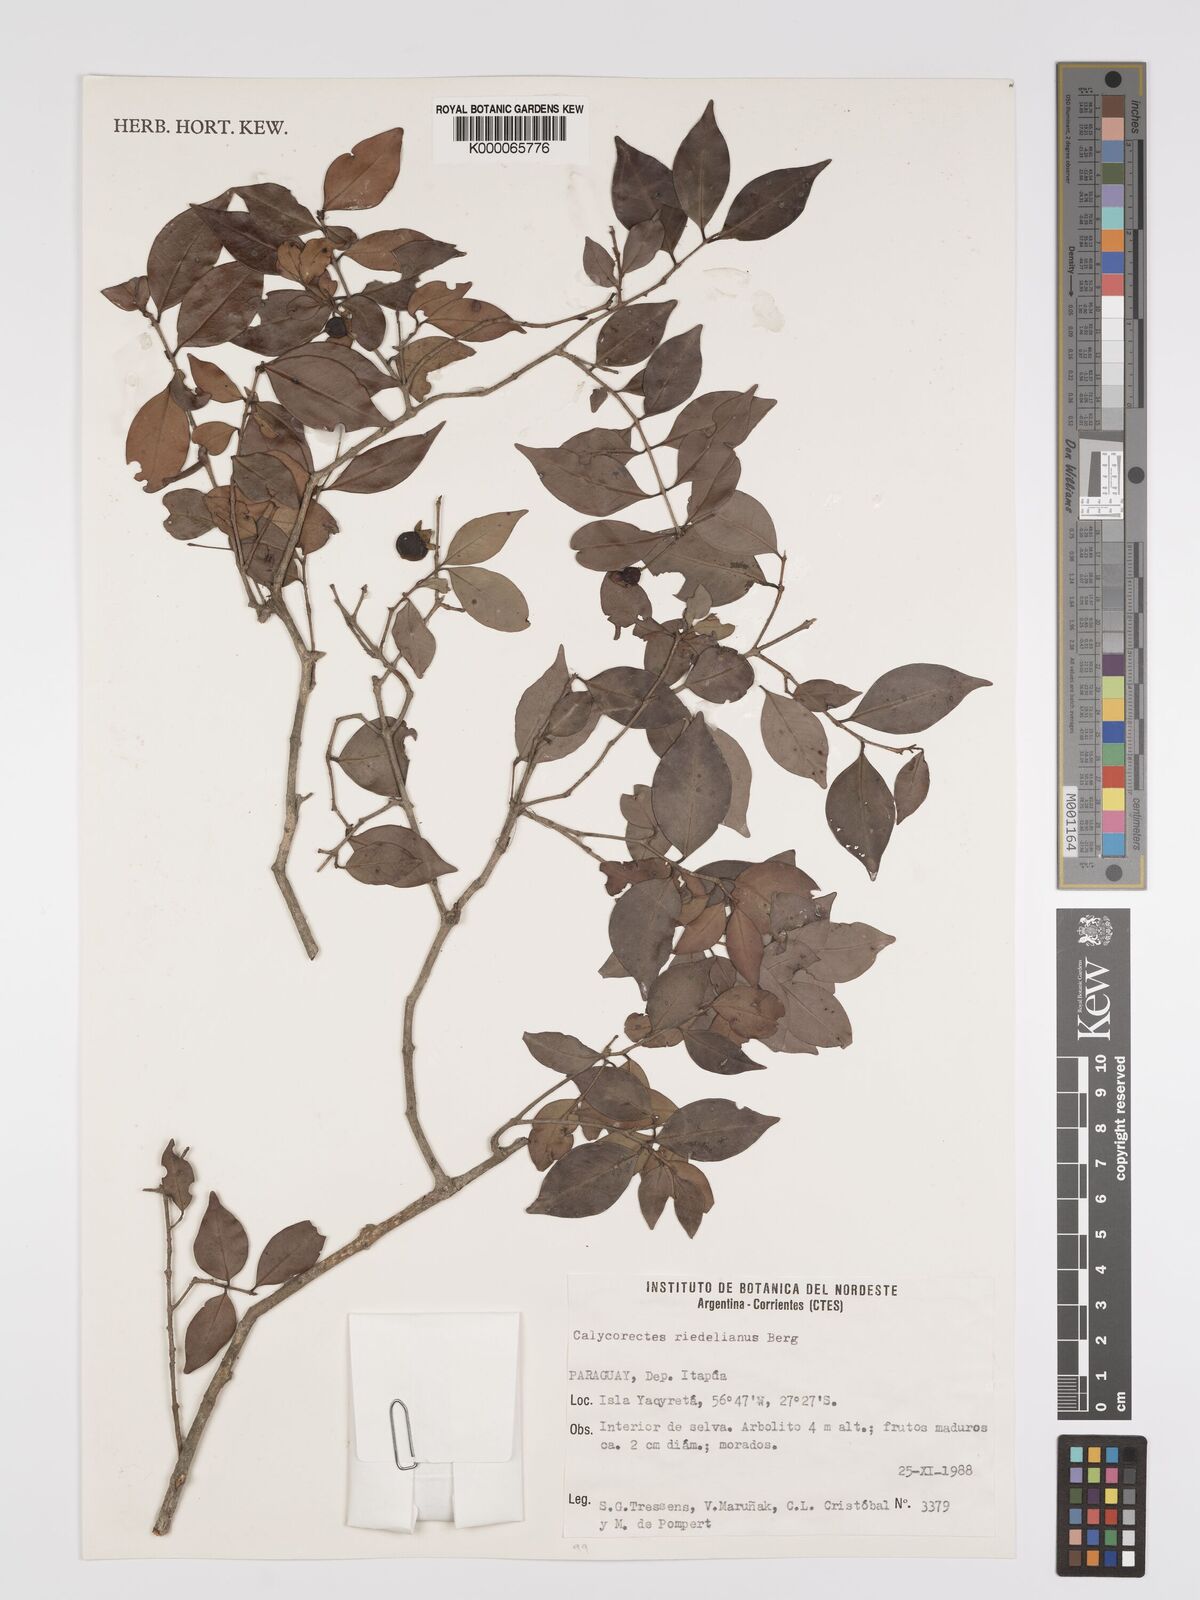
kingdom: Plantae
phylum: Tracheophyta
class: Magnoliopsida
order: Myrtales
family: Myrtaceae
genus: Eugenia
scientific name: Eugenia psidiiflora
